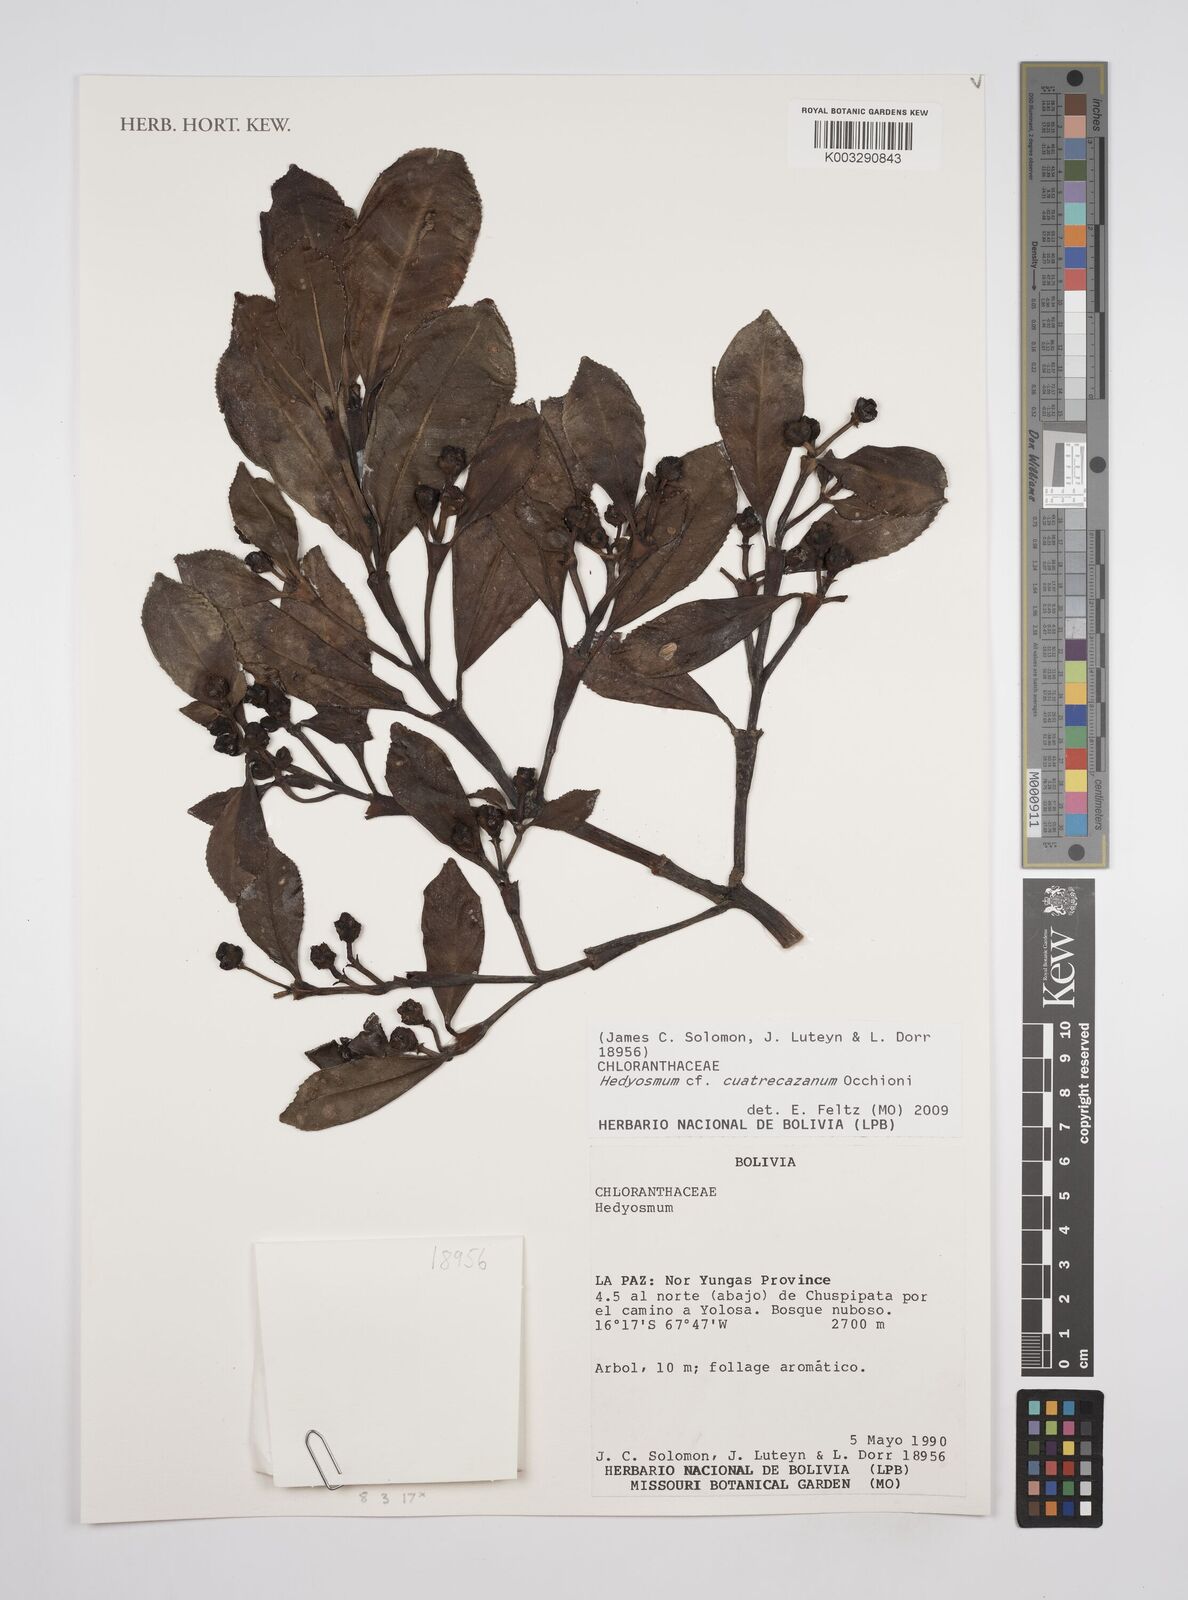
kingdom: Plantae
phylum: Tracheophyta
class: Magnoliopsida
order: Chloranthales
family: Chloranthaceae
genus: Hedyosmum
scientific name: Hedyosmum cuatrecazanum
